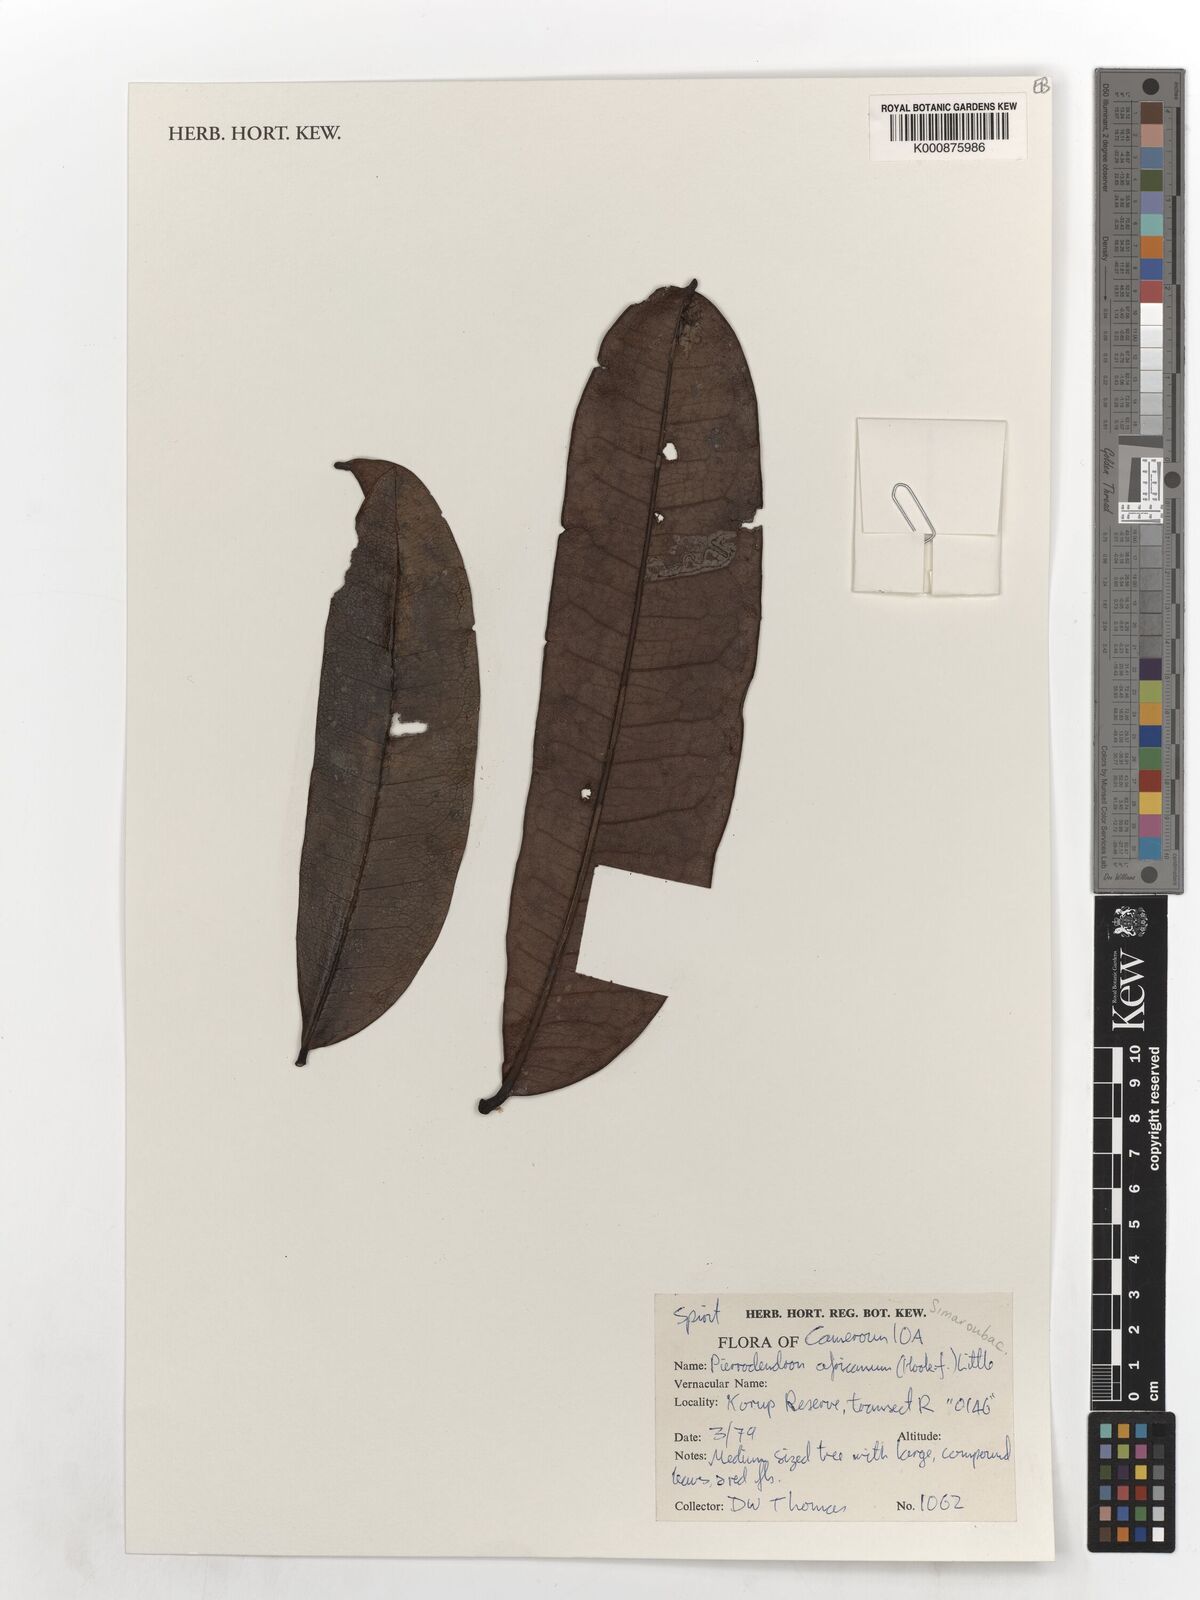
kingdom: Plantae
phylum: Tracheophyta
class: Magnoliopsida
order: Sapindales
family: Simaroubaceae
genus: Simaba
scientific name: Simaba grandifolia
